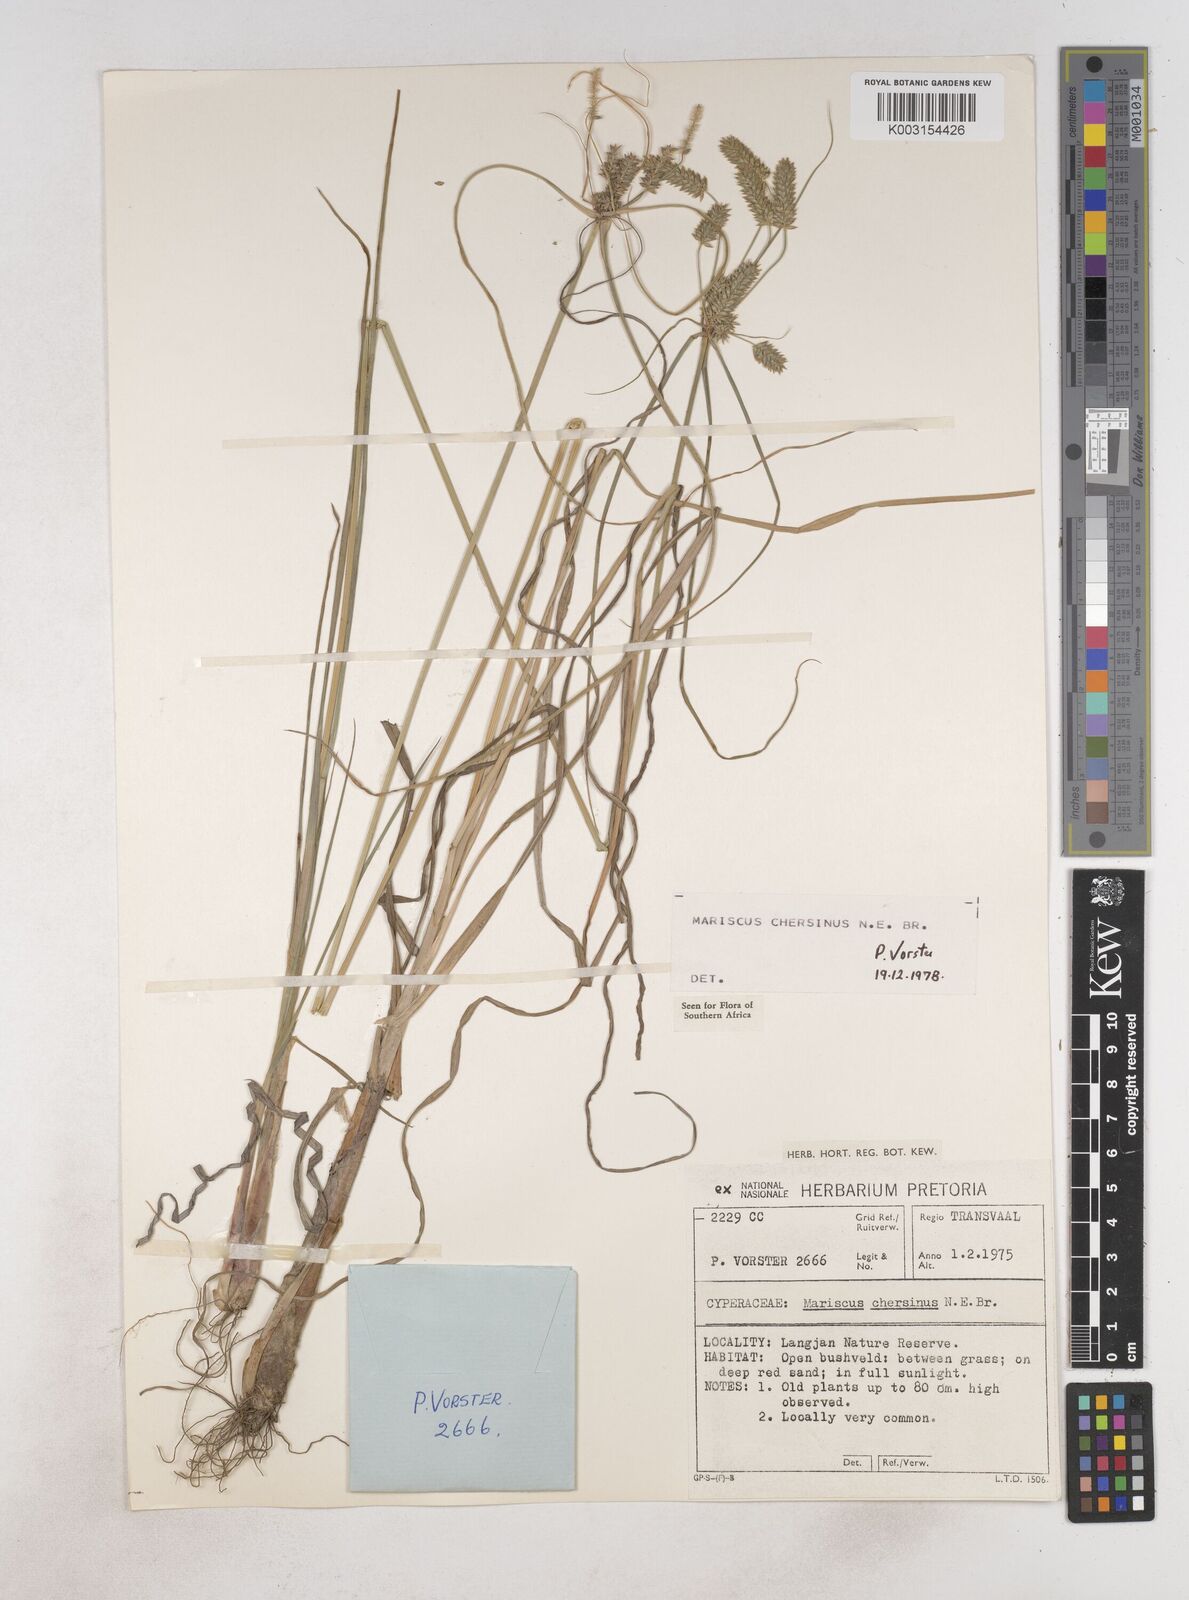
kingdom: Plantae
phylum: Tracheophyta
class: Liliopsida
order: Poales
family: Cyperaceae
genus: Cyperus
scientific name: Cyperus chersinus
